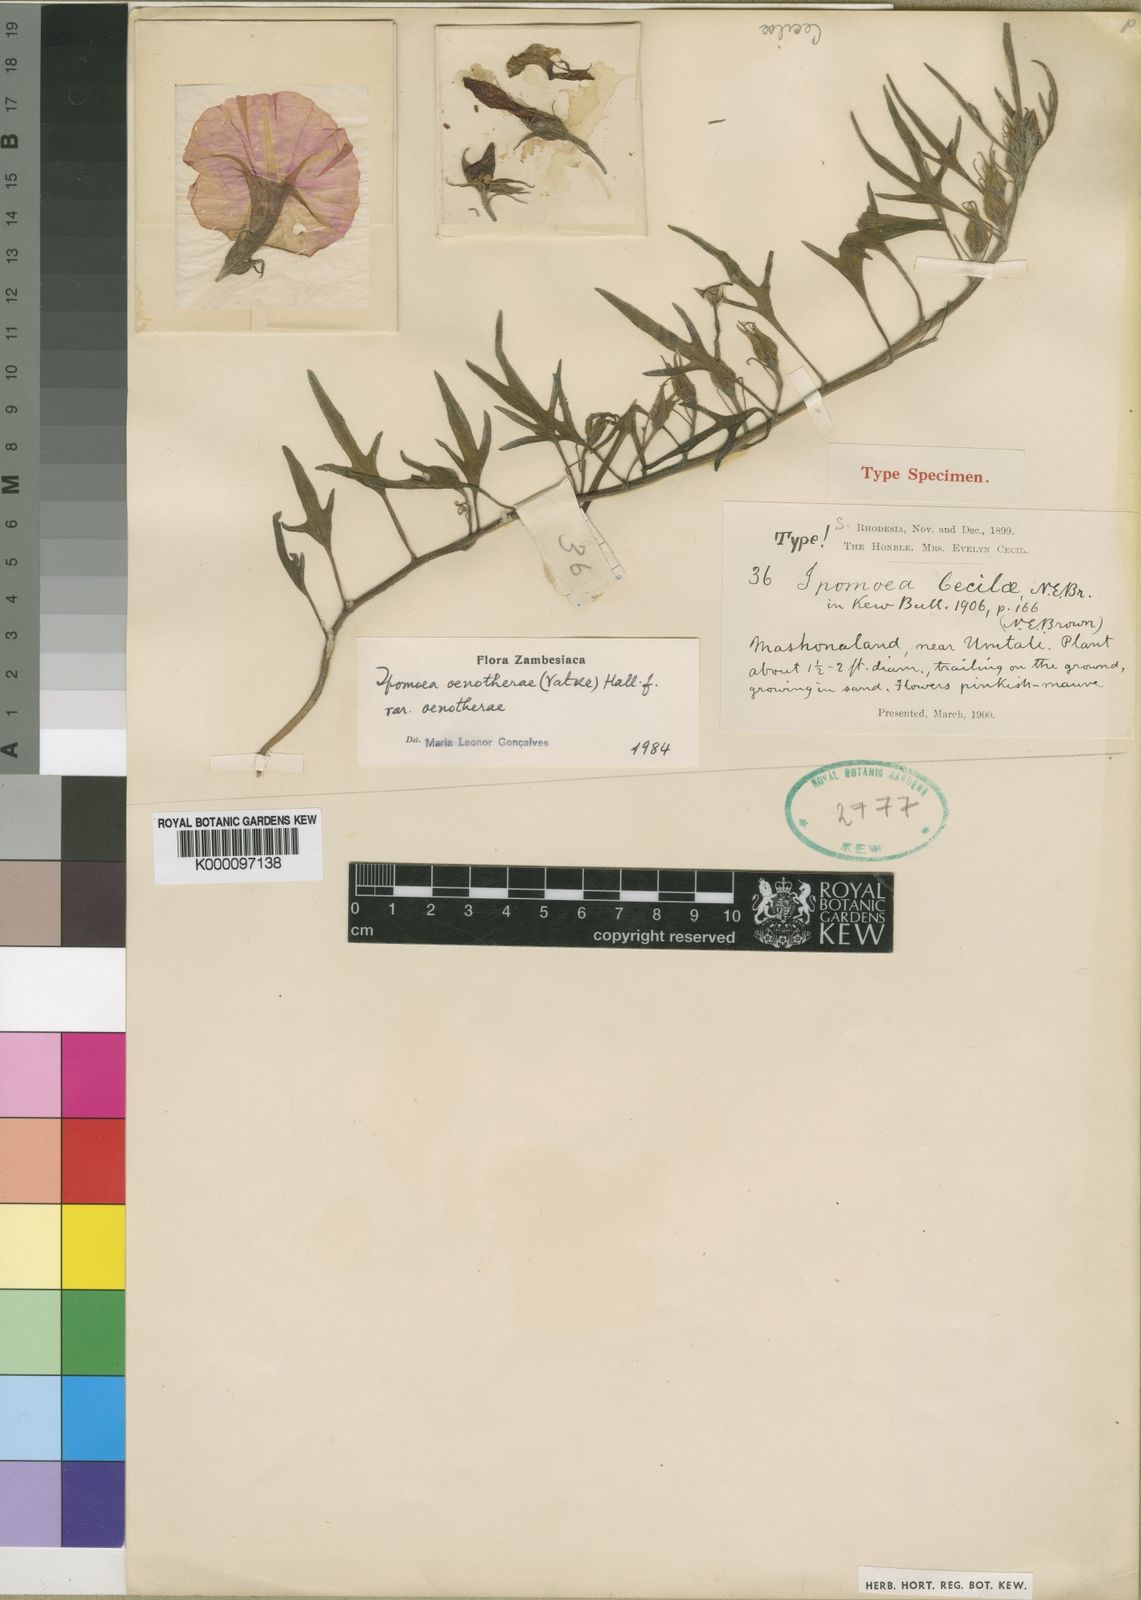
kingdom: Plantae
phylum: Tracheophyta
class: Magnoliopsida
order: Solanales
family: Convolvulaceae
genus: Ipomoea
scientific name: Ipomoea oenotherae
